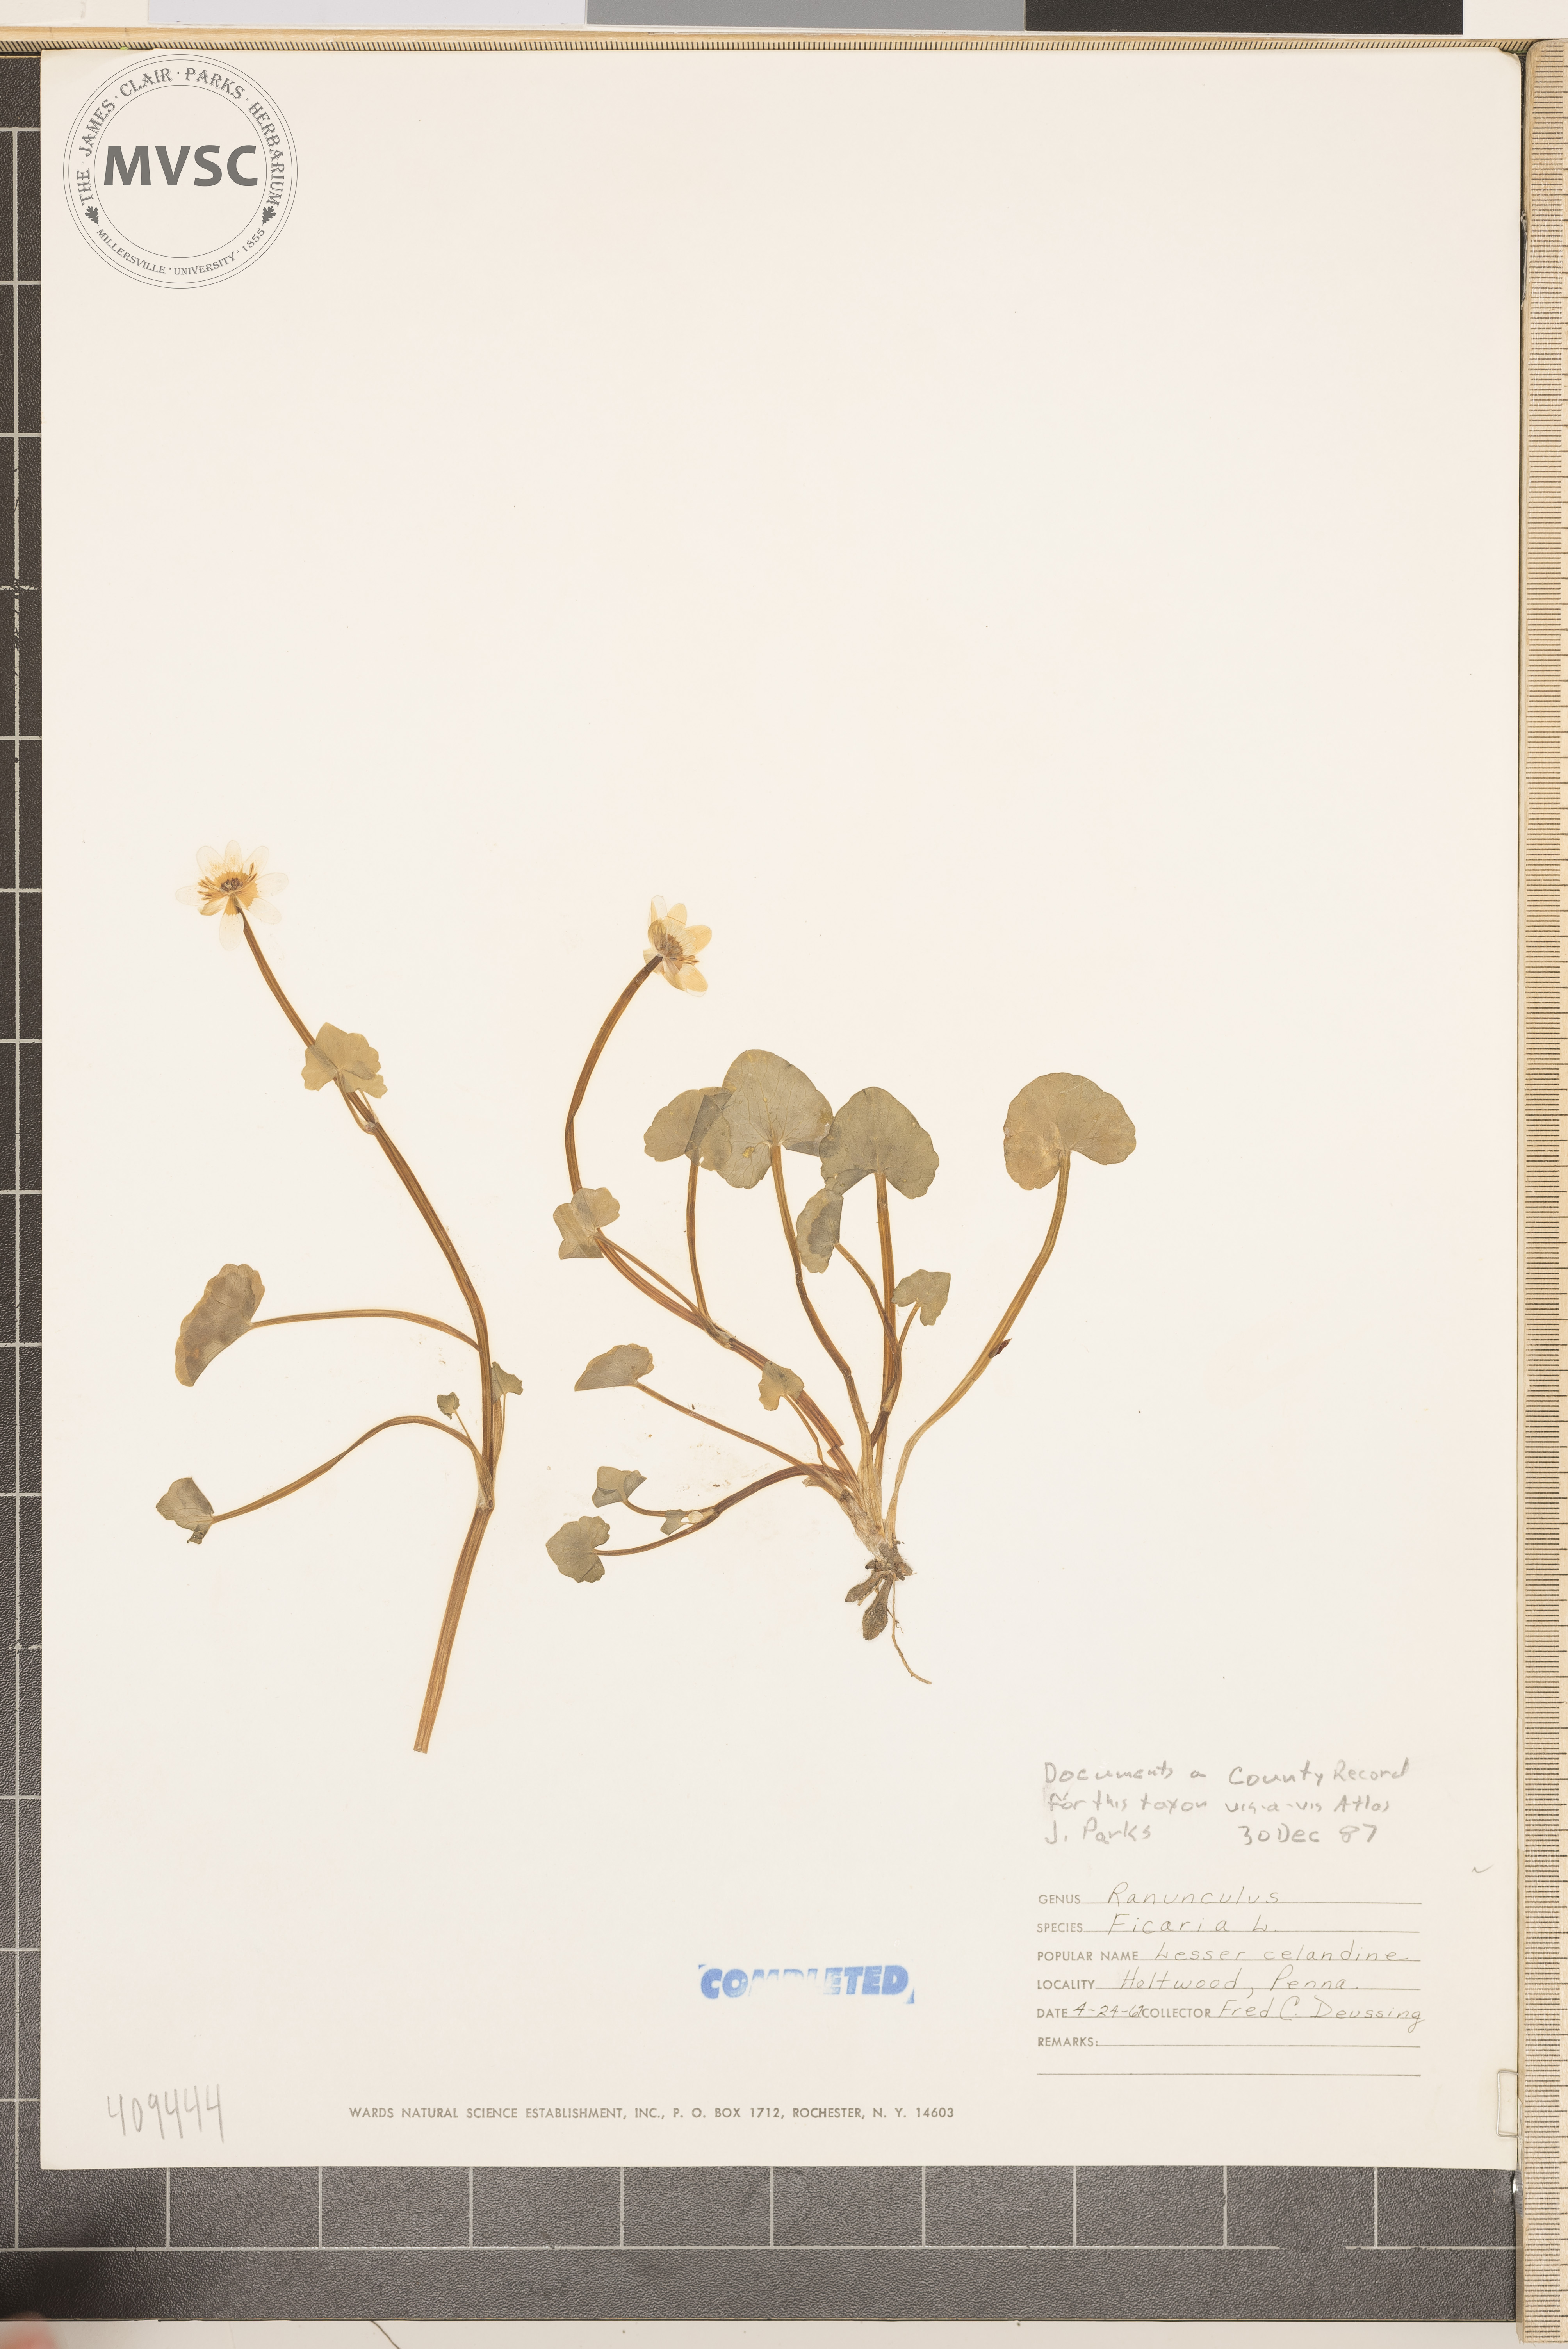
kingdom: Plantae
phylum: Tracheophyta
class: Magnoliopsida
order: Ranunculales
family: Ranunculaceae
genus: Ranunculus
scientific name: Ranunculus ficaria
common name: fig buttercup
